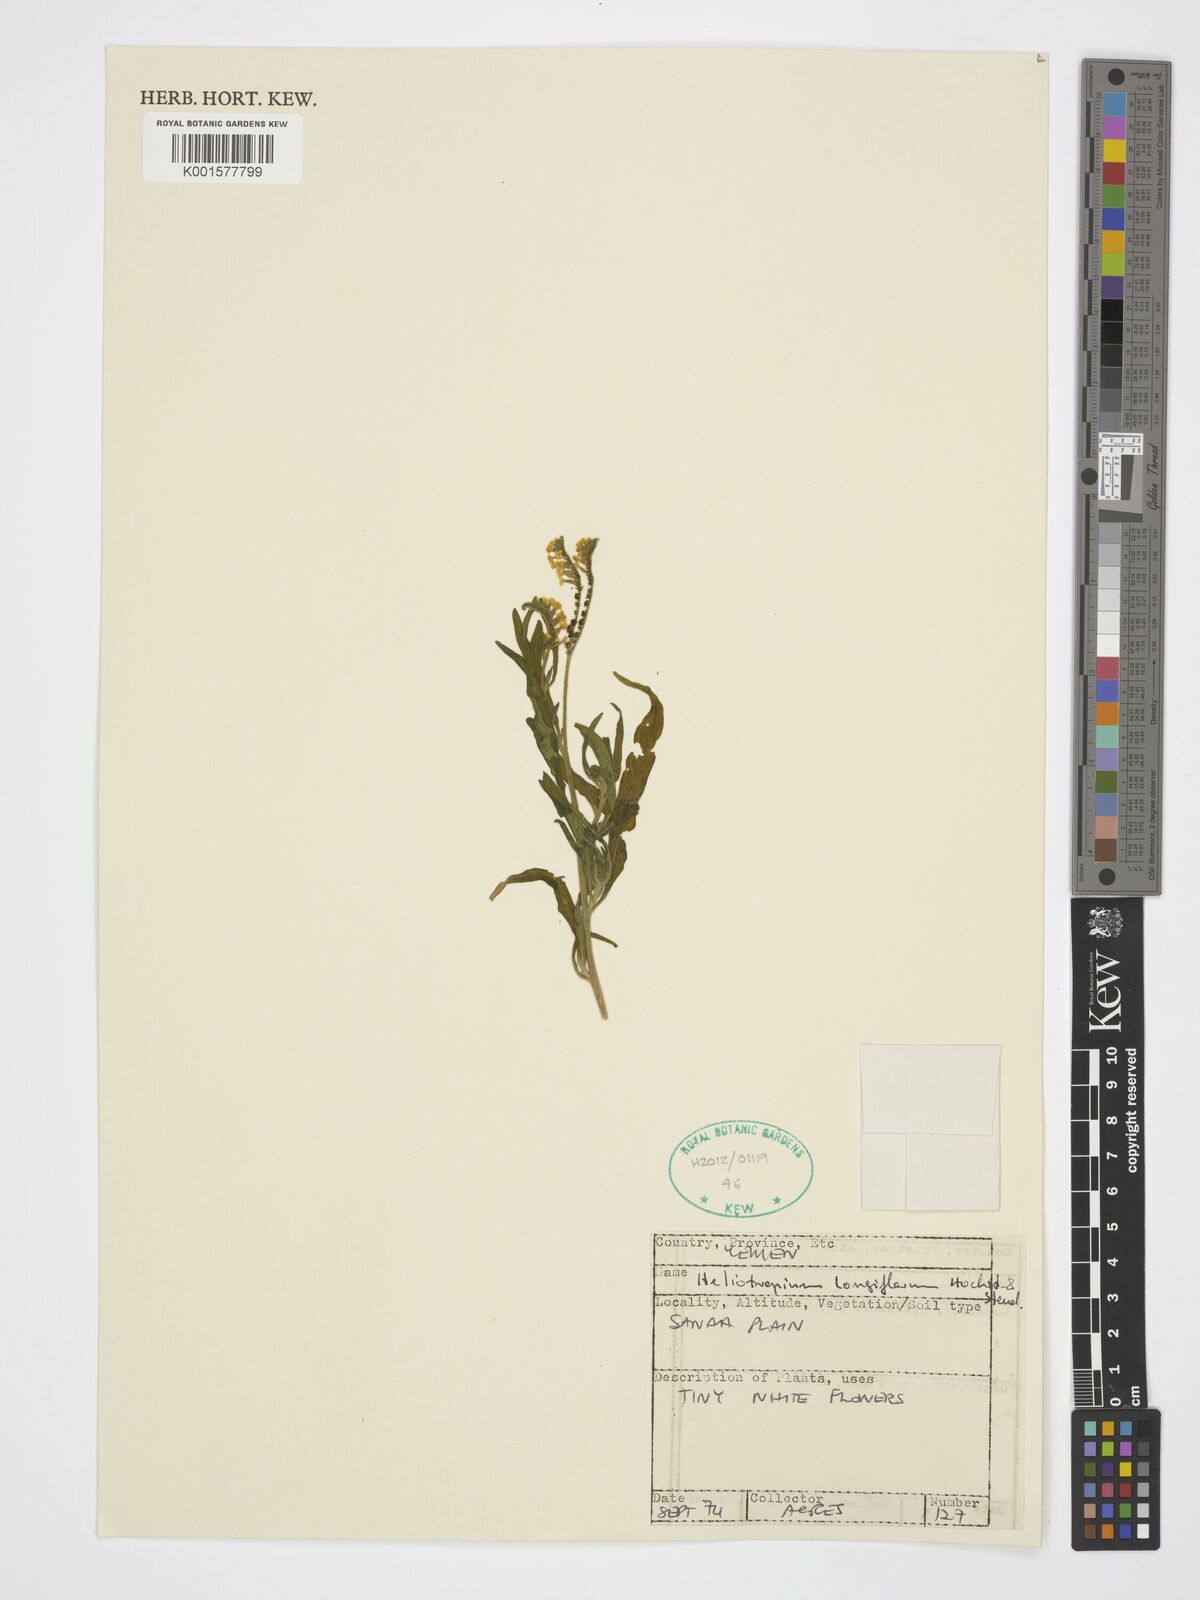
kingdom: Plantae
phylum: Tracheophyta
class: Magnoliopsida
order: Boraginales
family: Heliotropiaceae
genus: Heliotropium
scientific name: Heliotropium longiflorum
